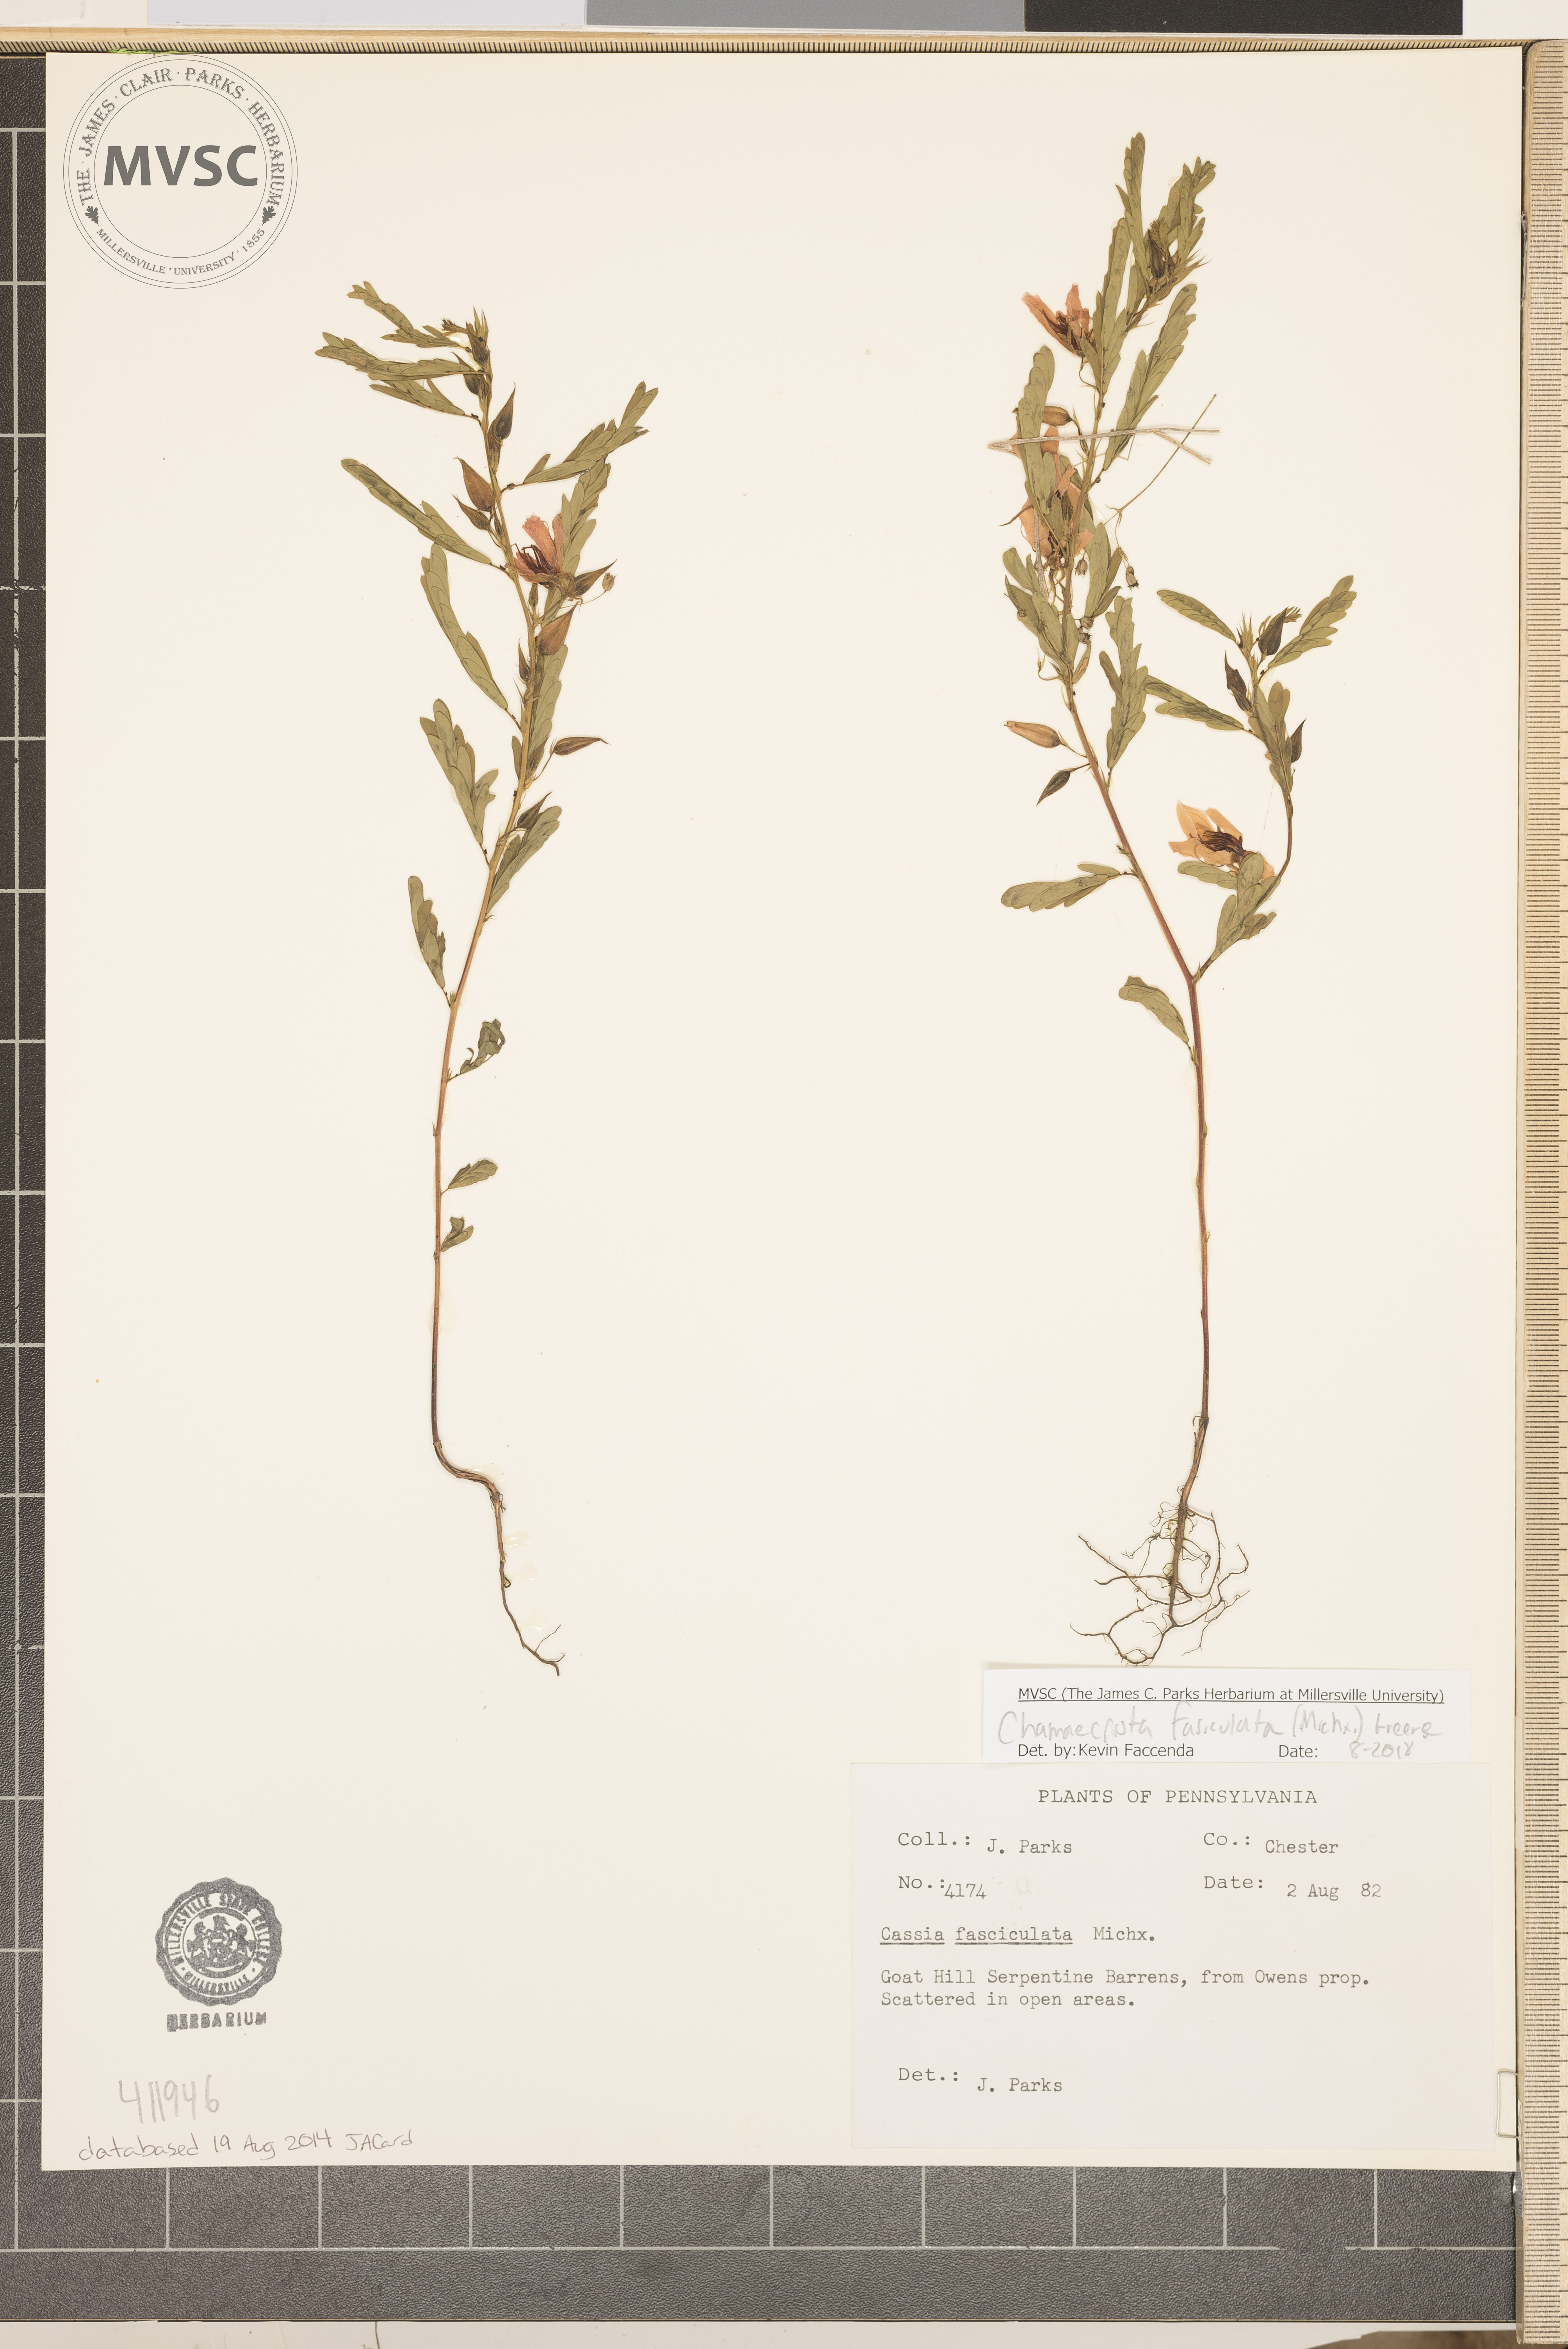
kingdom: Plantae
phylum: Tracheophyta
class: Magnoliopsida
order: Fabales
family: Fabaceae
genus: Chamaecrista
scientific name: Chamaecrista fasciculata
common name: Golden cassia
